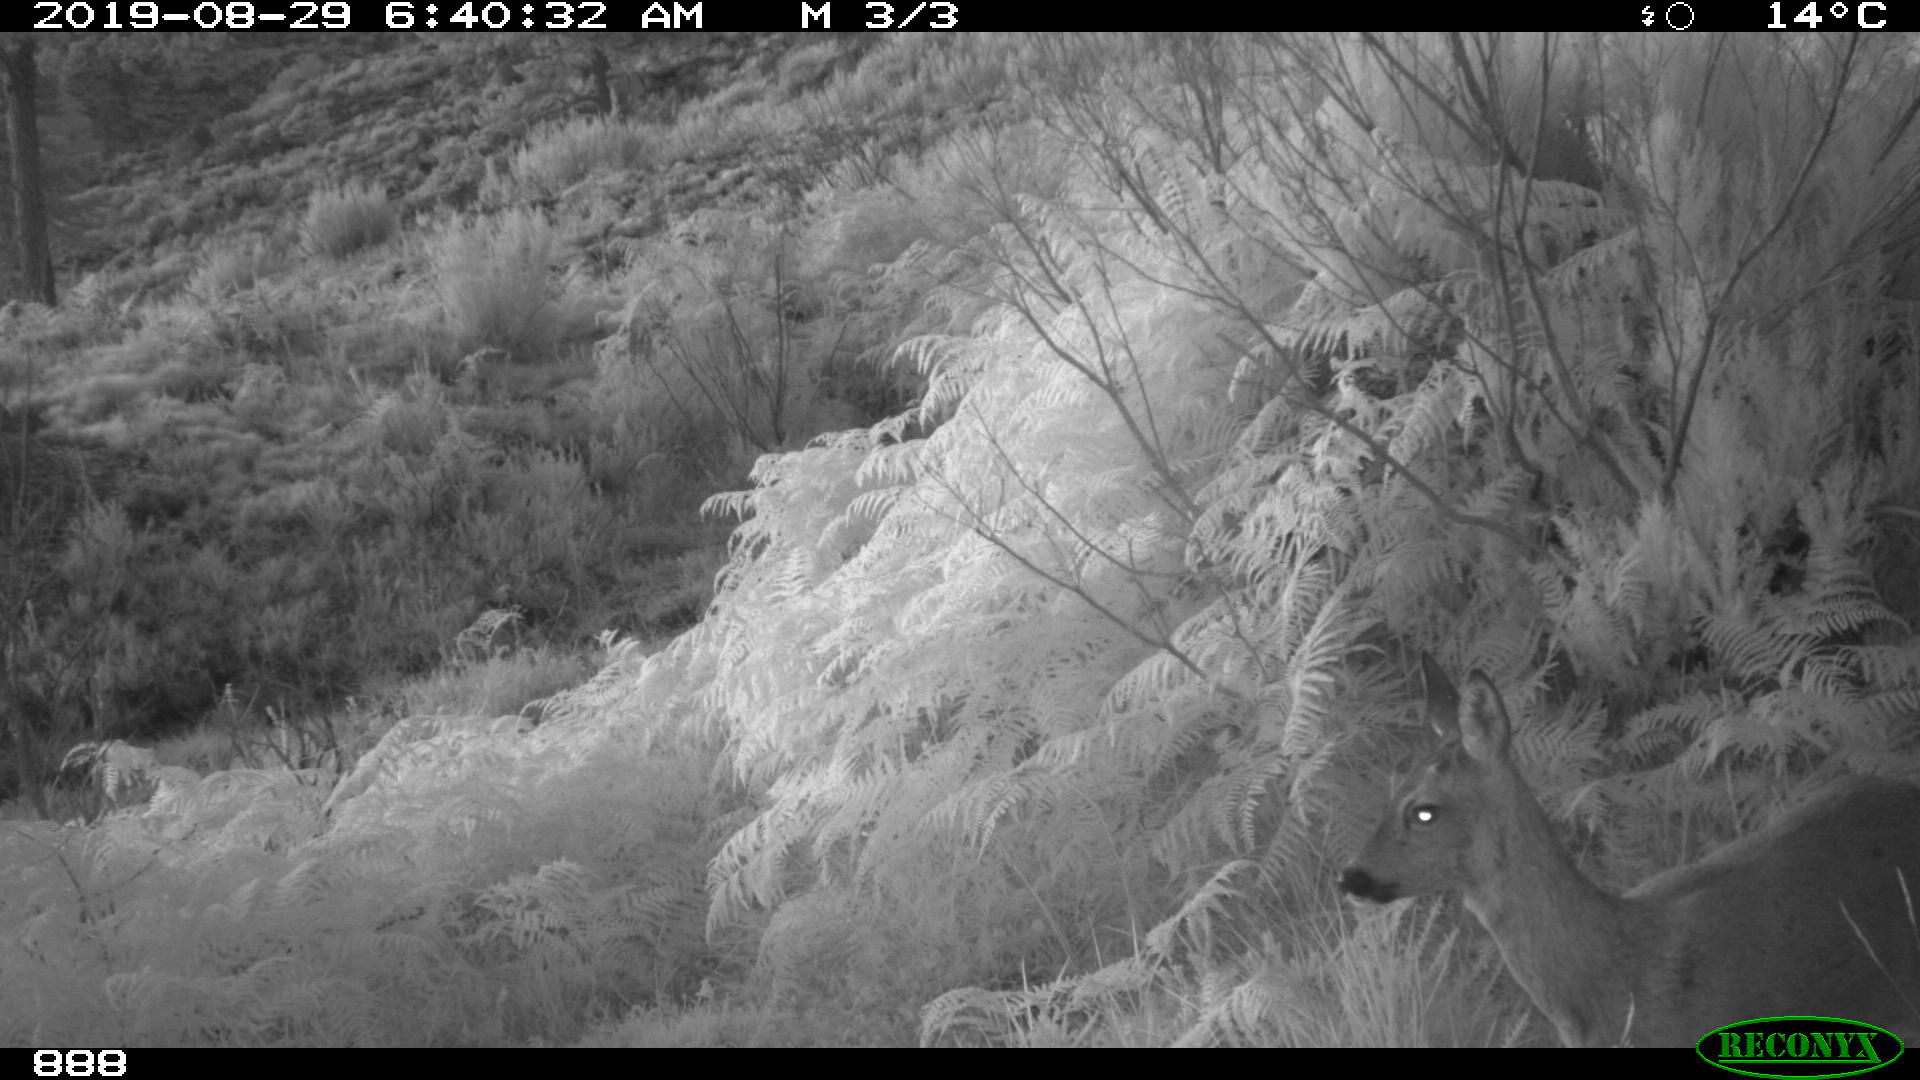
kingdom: Animalia
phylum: Chordata
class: Mammalia
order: Artiodactyla
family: Cervidae
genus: Capreolus
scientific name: Capreolus capreolus
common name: Western roe deer
